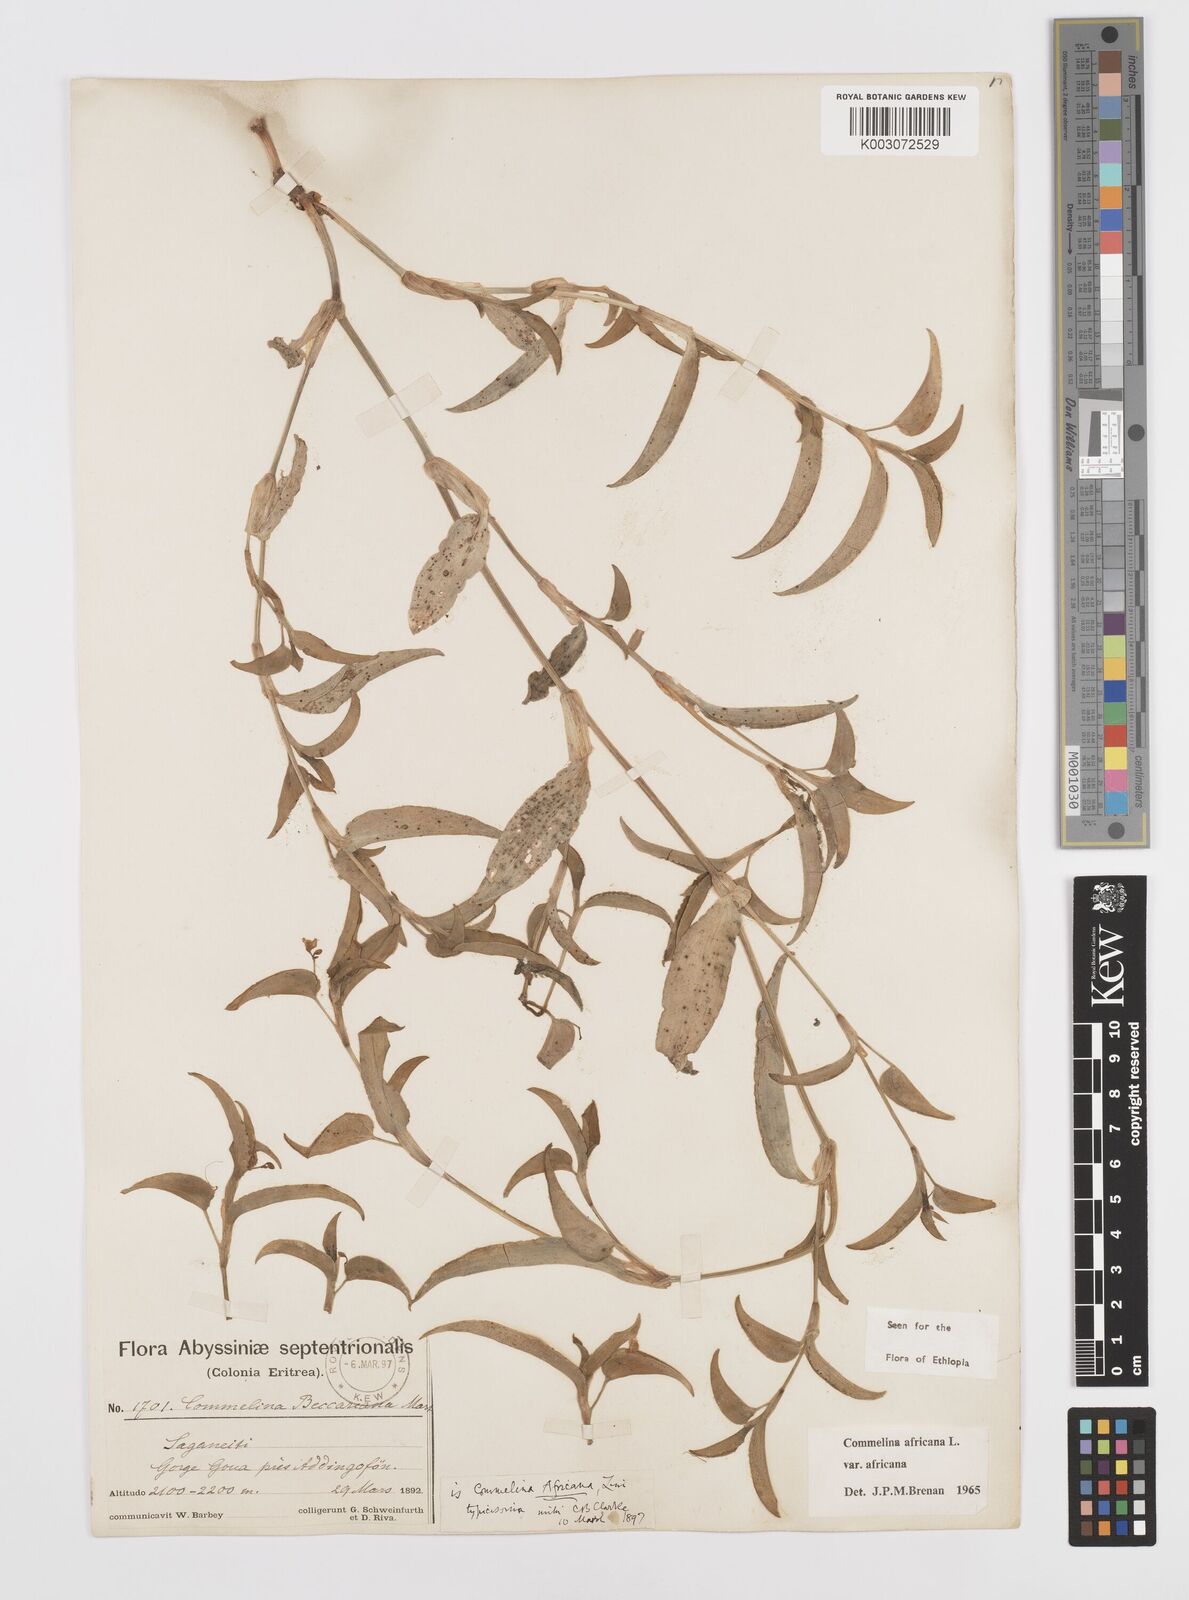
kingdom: Plantae
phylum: Tracheophyta
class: Liliopsida
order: Commelinales
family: Commelinaceae
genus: Commelina
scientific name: Commelina africana
